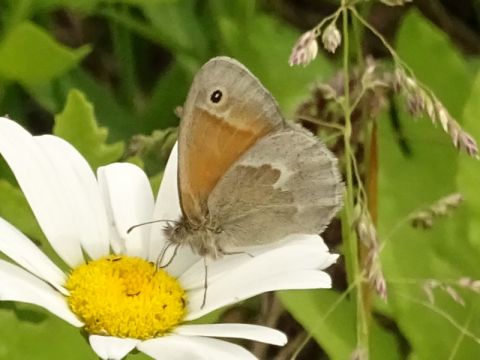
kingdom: Animalia
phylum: Arthropoda
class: Insecta
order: Lepidoptera
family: Nymphalidae
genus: Coenonympha
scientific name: Coenonympha tullia
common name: Large Heath
